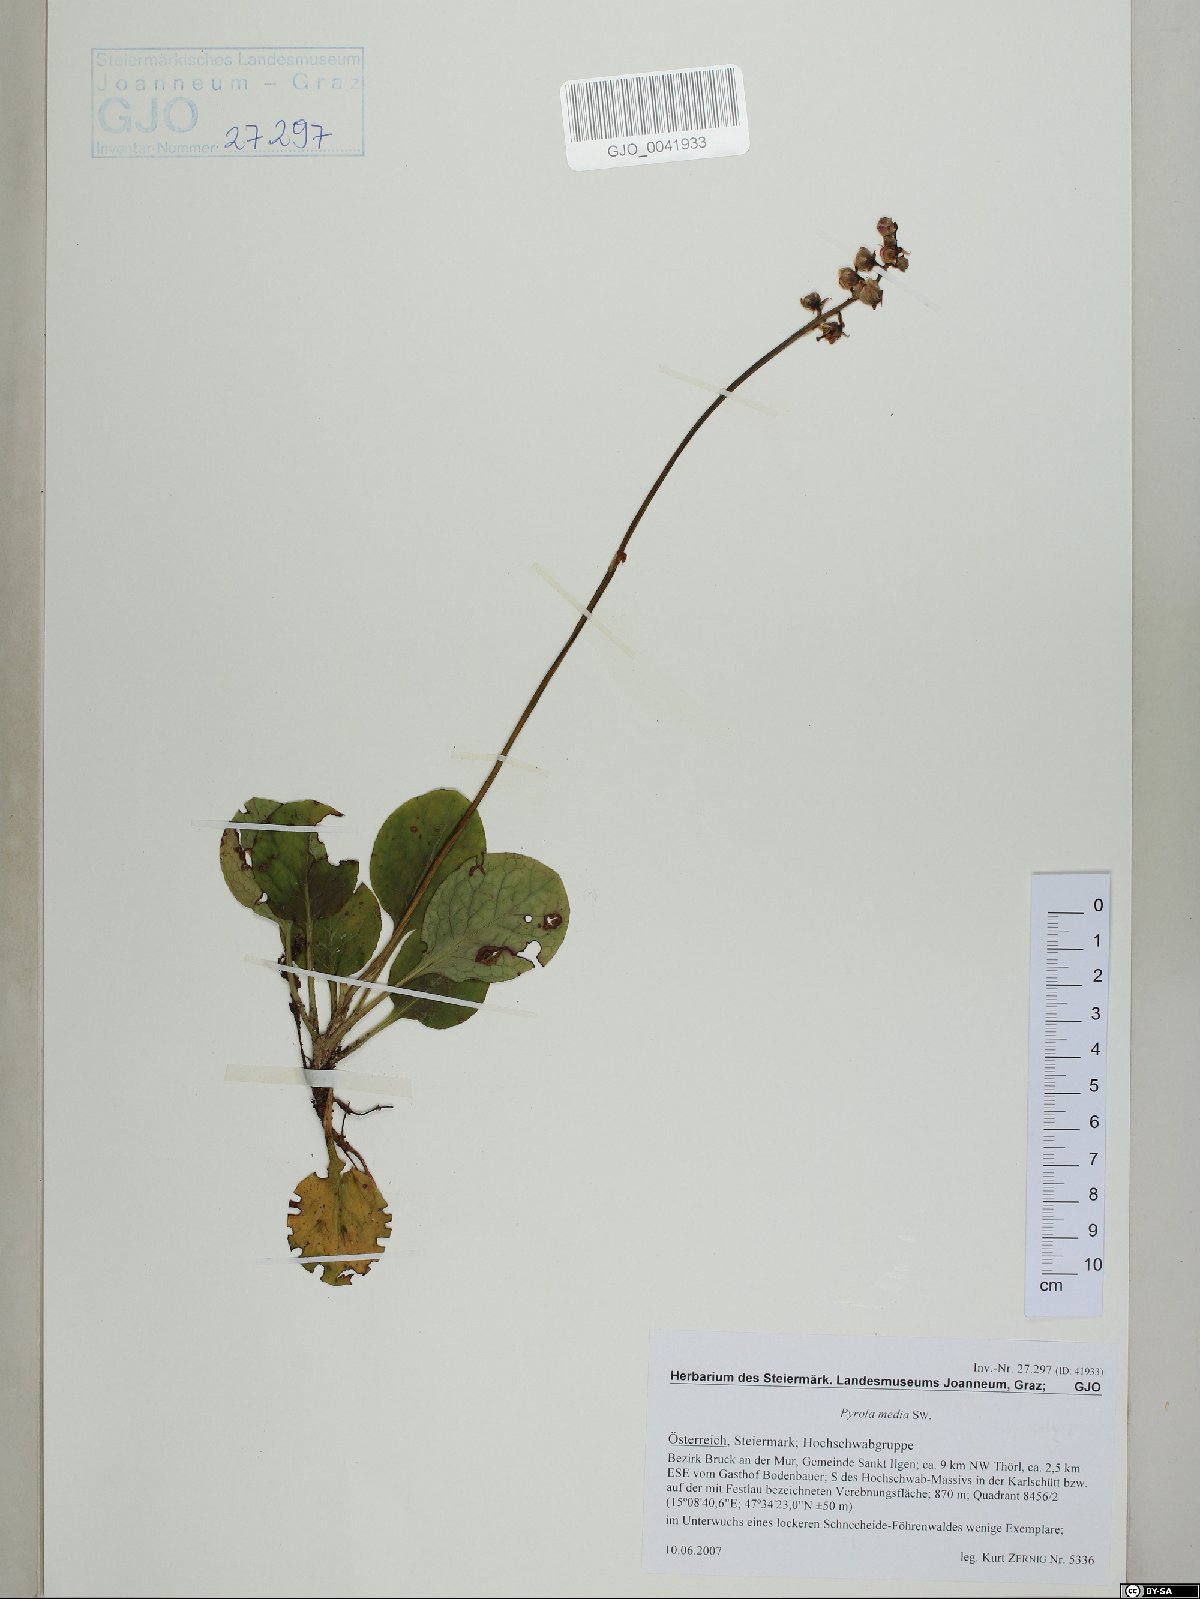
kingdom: Plantae
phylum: Tracheophyta
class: Magnoliopsida
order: Ericales
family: Ericaceae
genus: Pyrola
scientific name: Pyrola media
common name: Intermediate wintergreen
